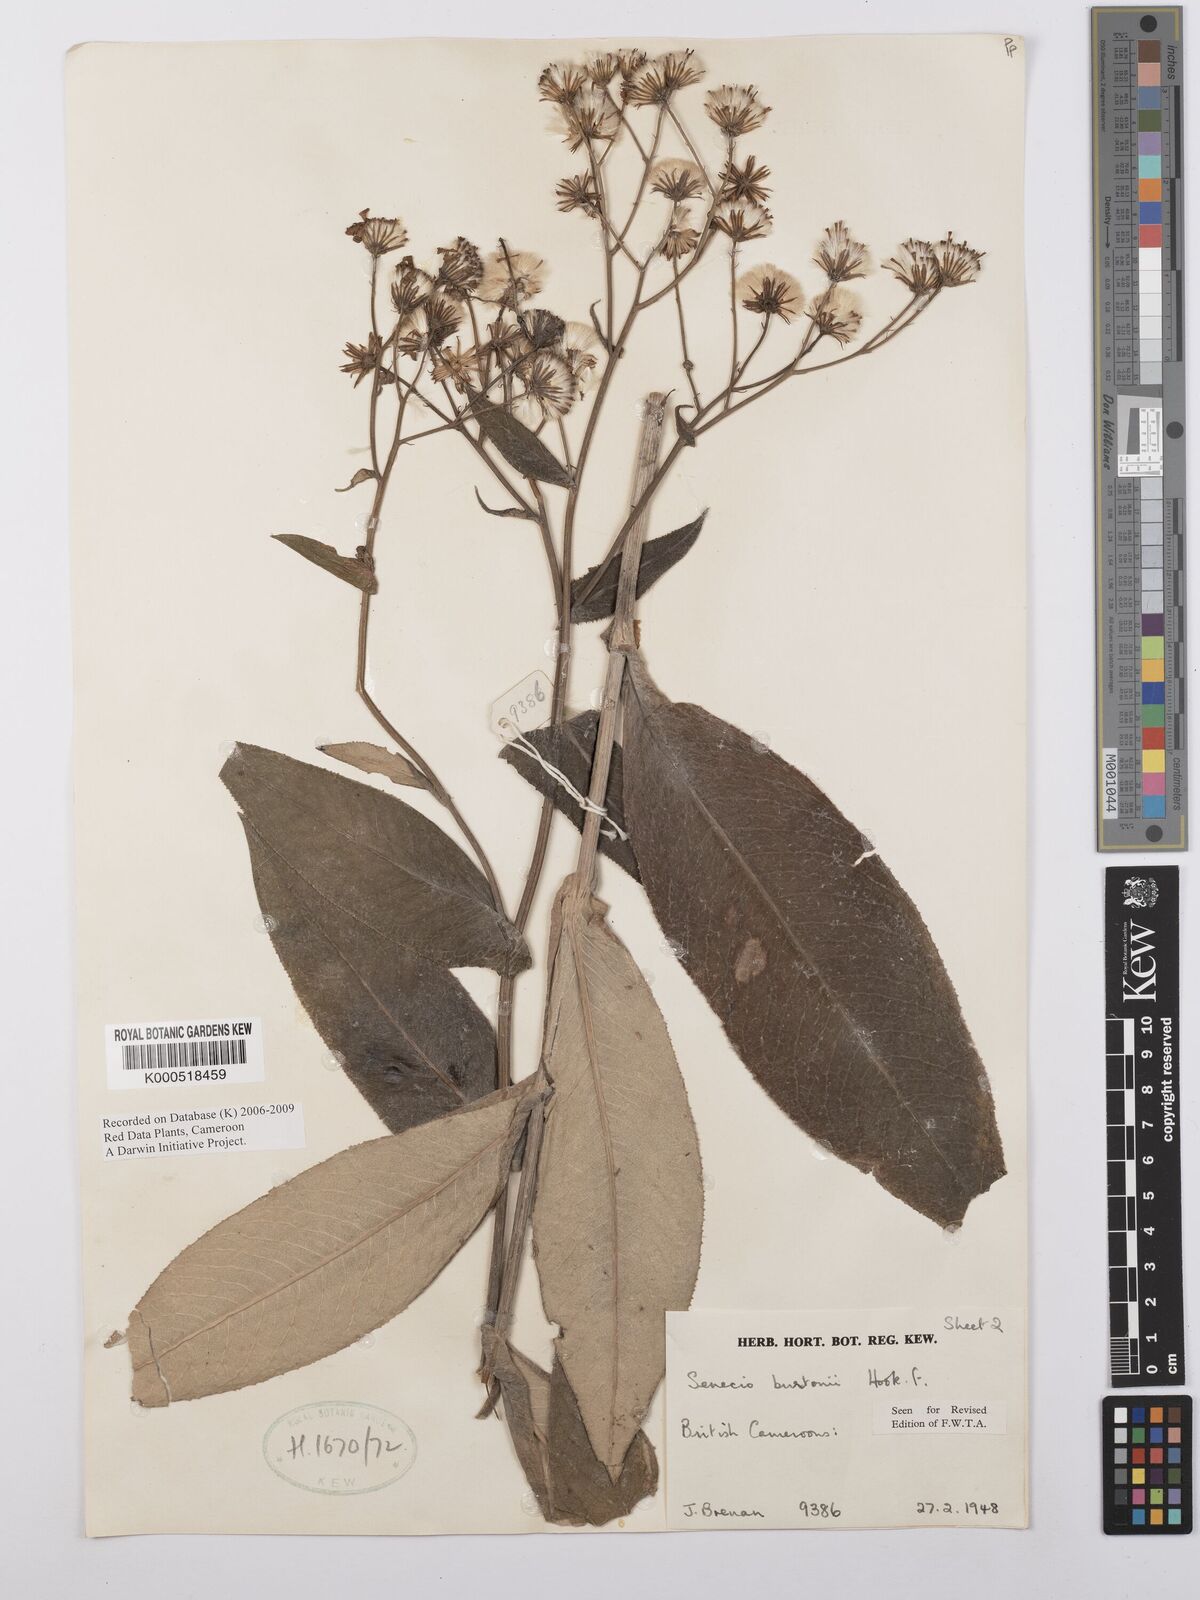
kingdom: Plantae
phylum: Tracheophyta
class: Magnoliopsida
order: Asterales
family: Asteraceae
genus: Senecio
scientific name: Senecio burtonii
